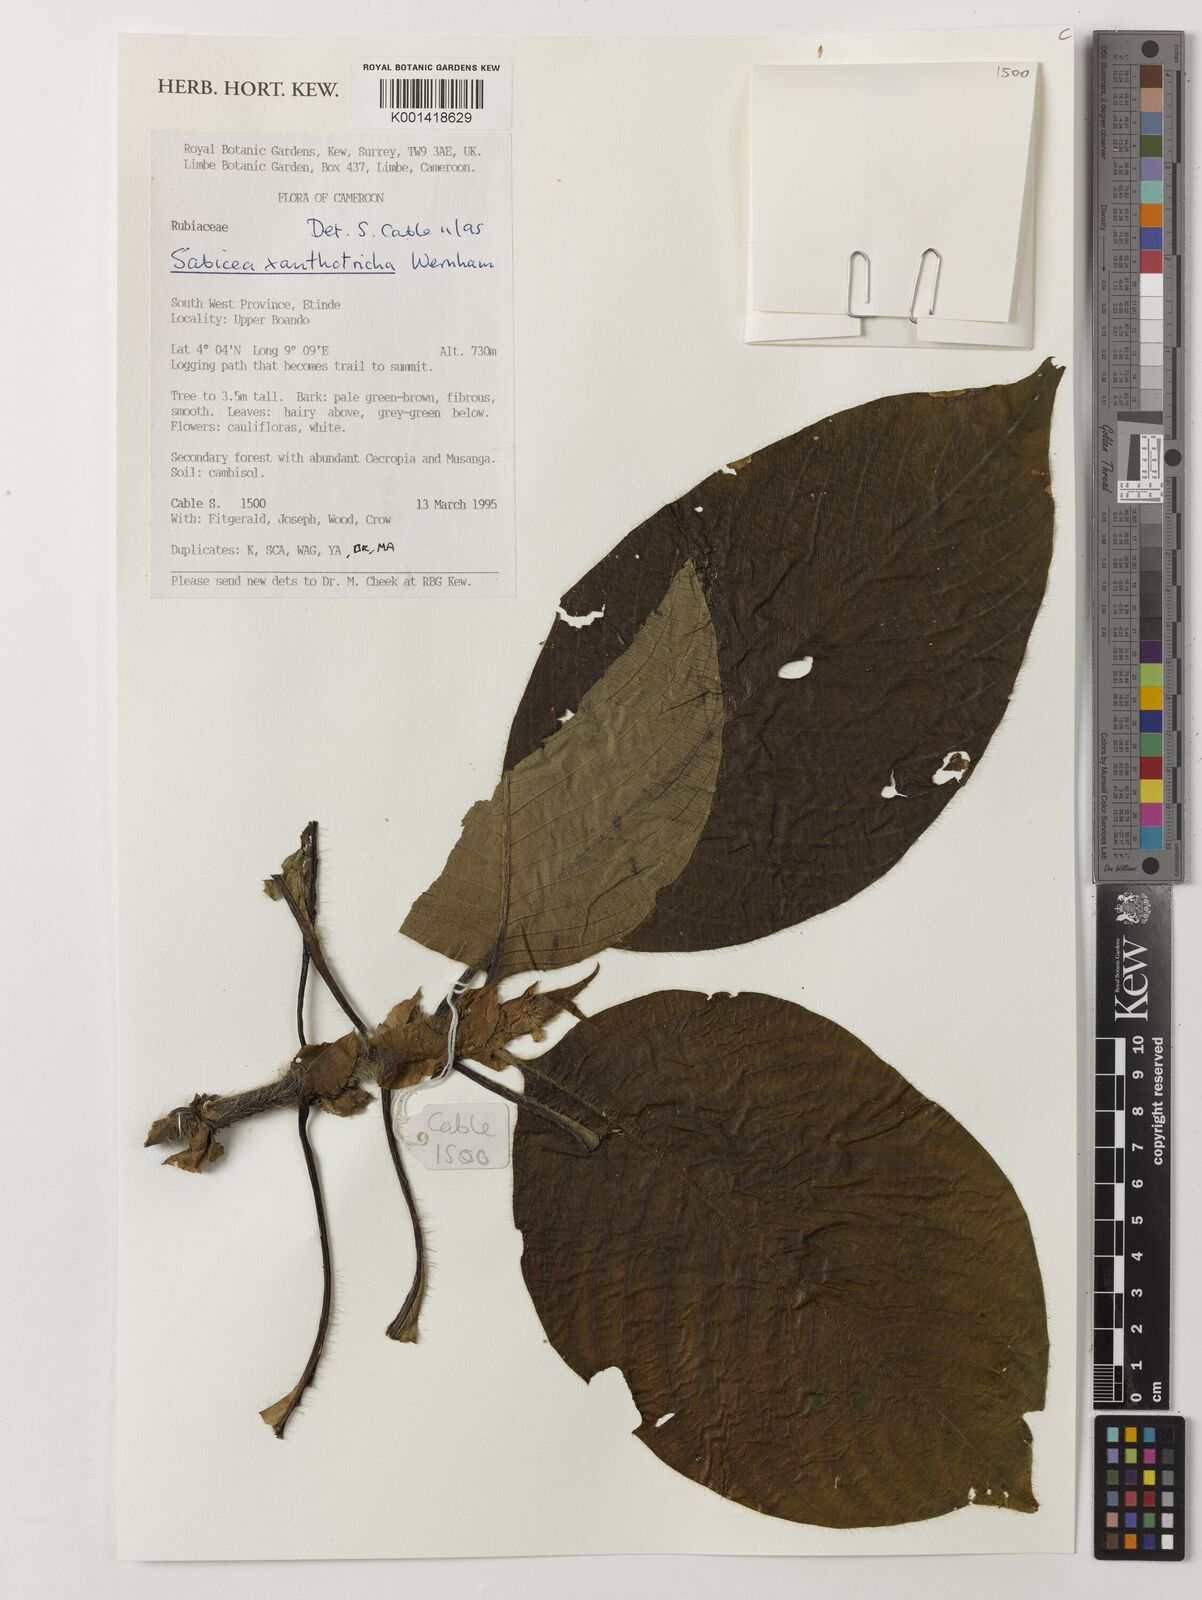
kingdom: Plantae
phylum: Tracheophyta
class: Magnoliopsida
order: Gentianales
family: Rubiaceae
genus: Sabicea
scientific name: Sabicea xanthotricha
